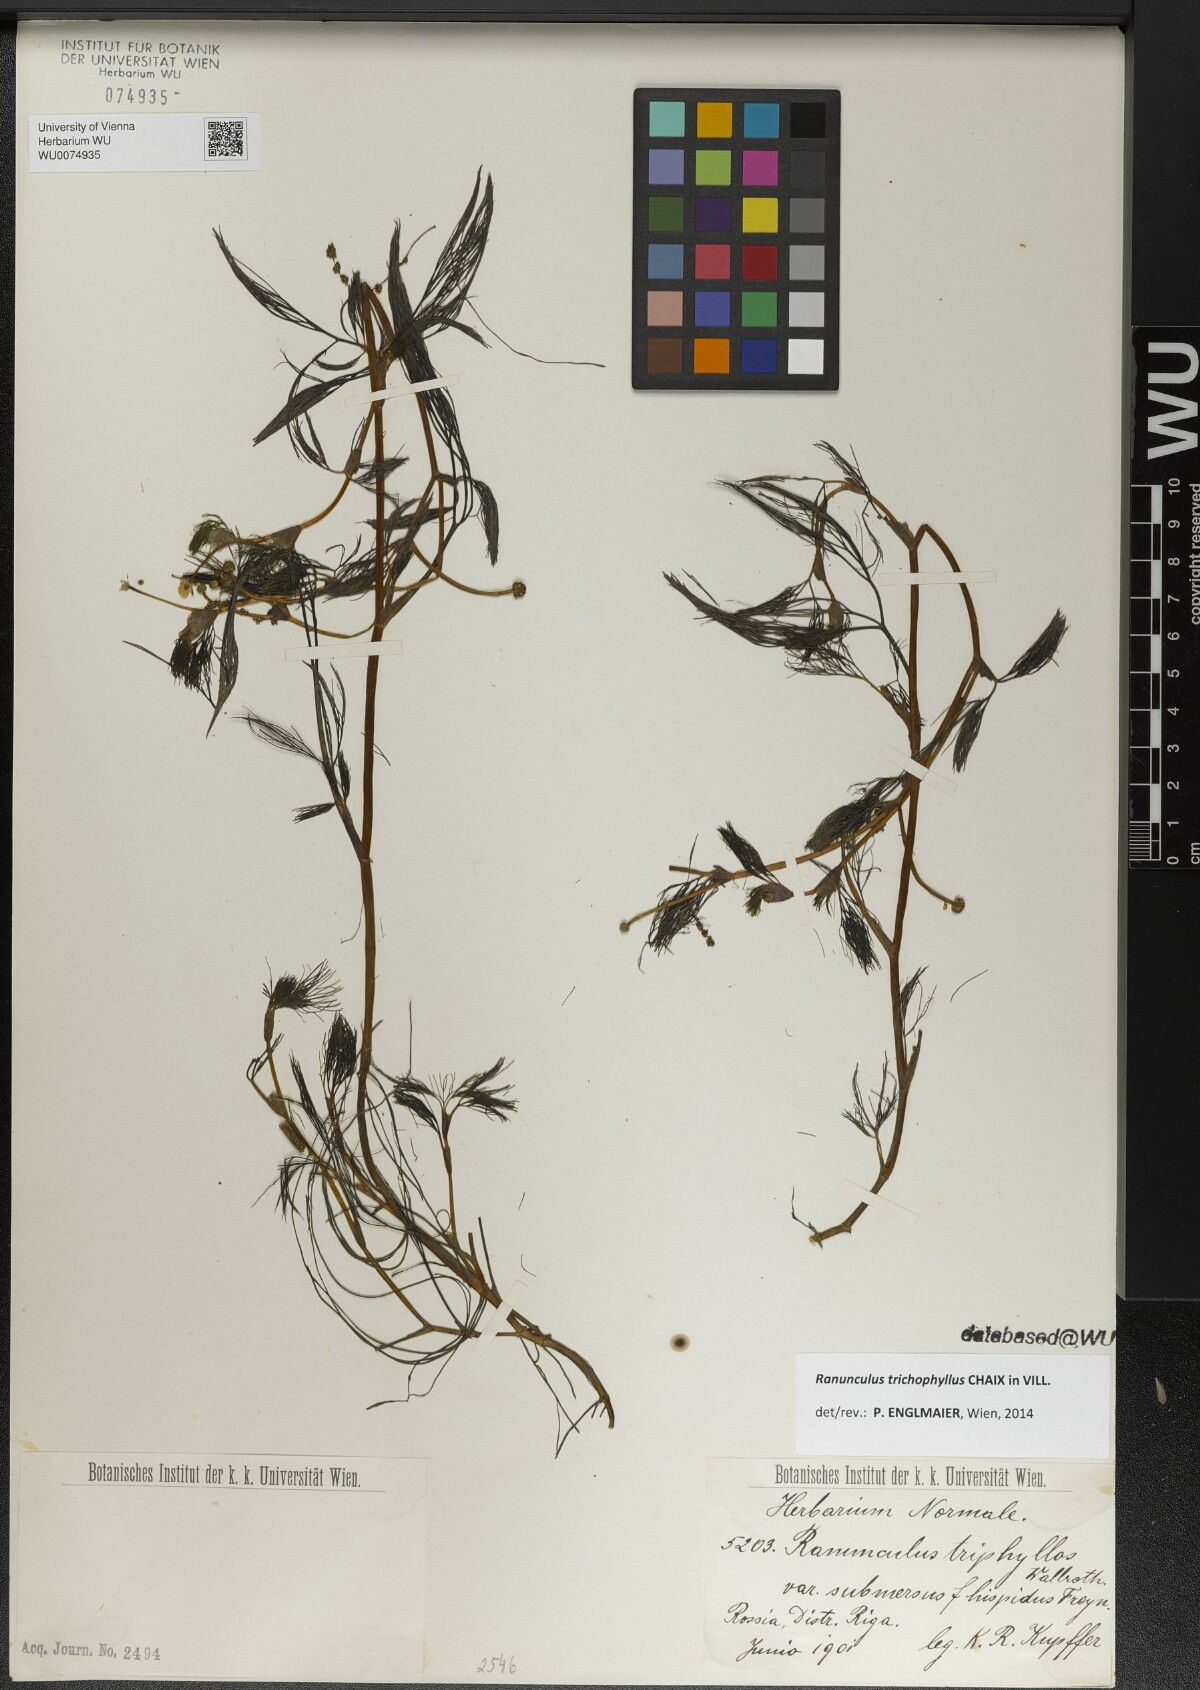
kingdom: Plantae
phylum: Tracheophyta
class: Magnoliopsida
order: Ranunculales
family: Ranunculaceae
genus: Ranunculus
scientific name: Ranunculus penicillatus
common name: Stream water-crowfoot
